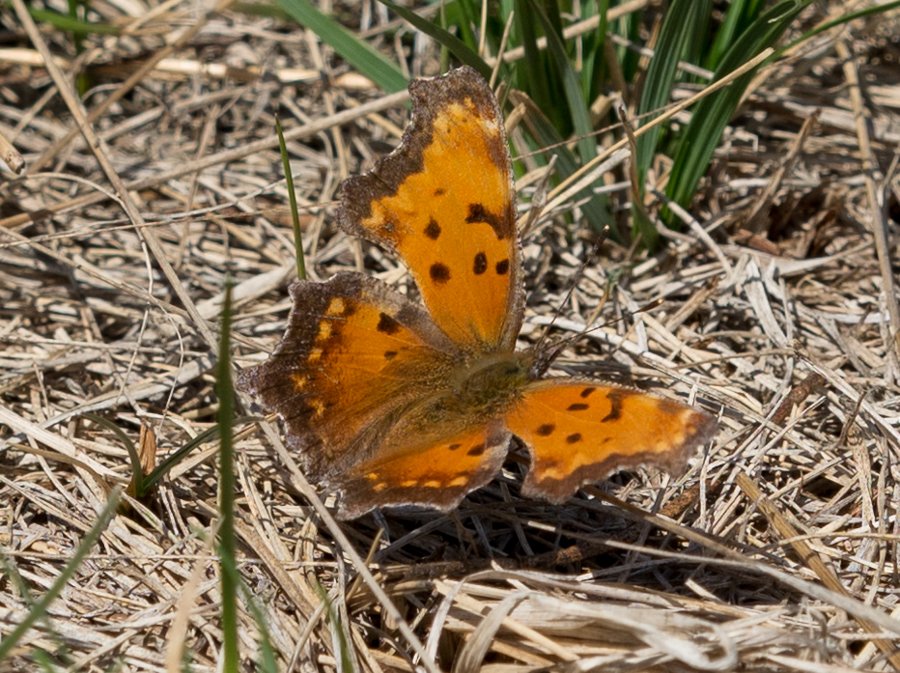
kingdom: Animalia
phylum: Arthropoda
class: Insecta
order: Lepidoptera
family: Nymphalidae
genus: Polygonia
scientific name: Polygonia progne
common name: Gray Comma
